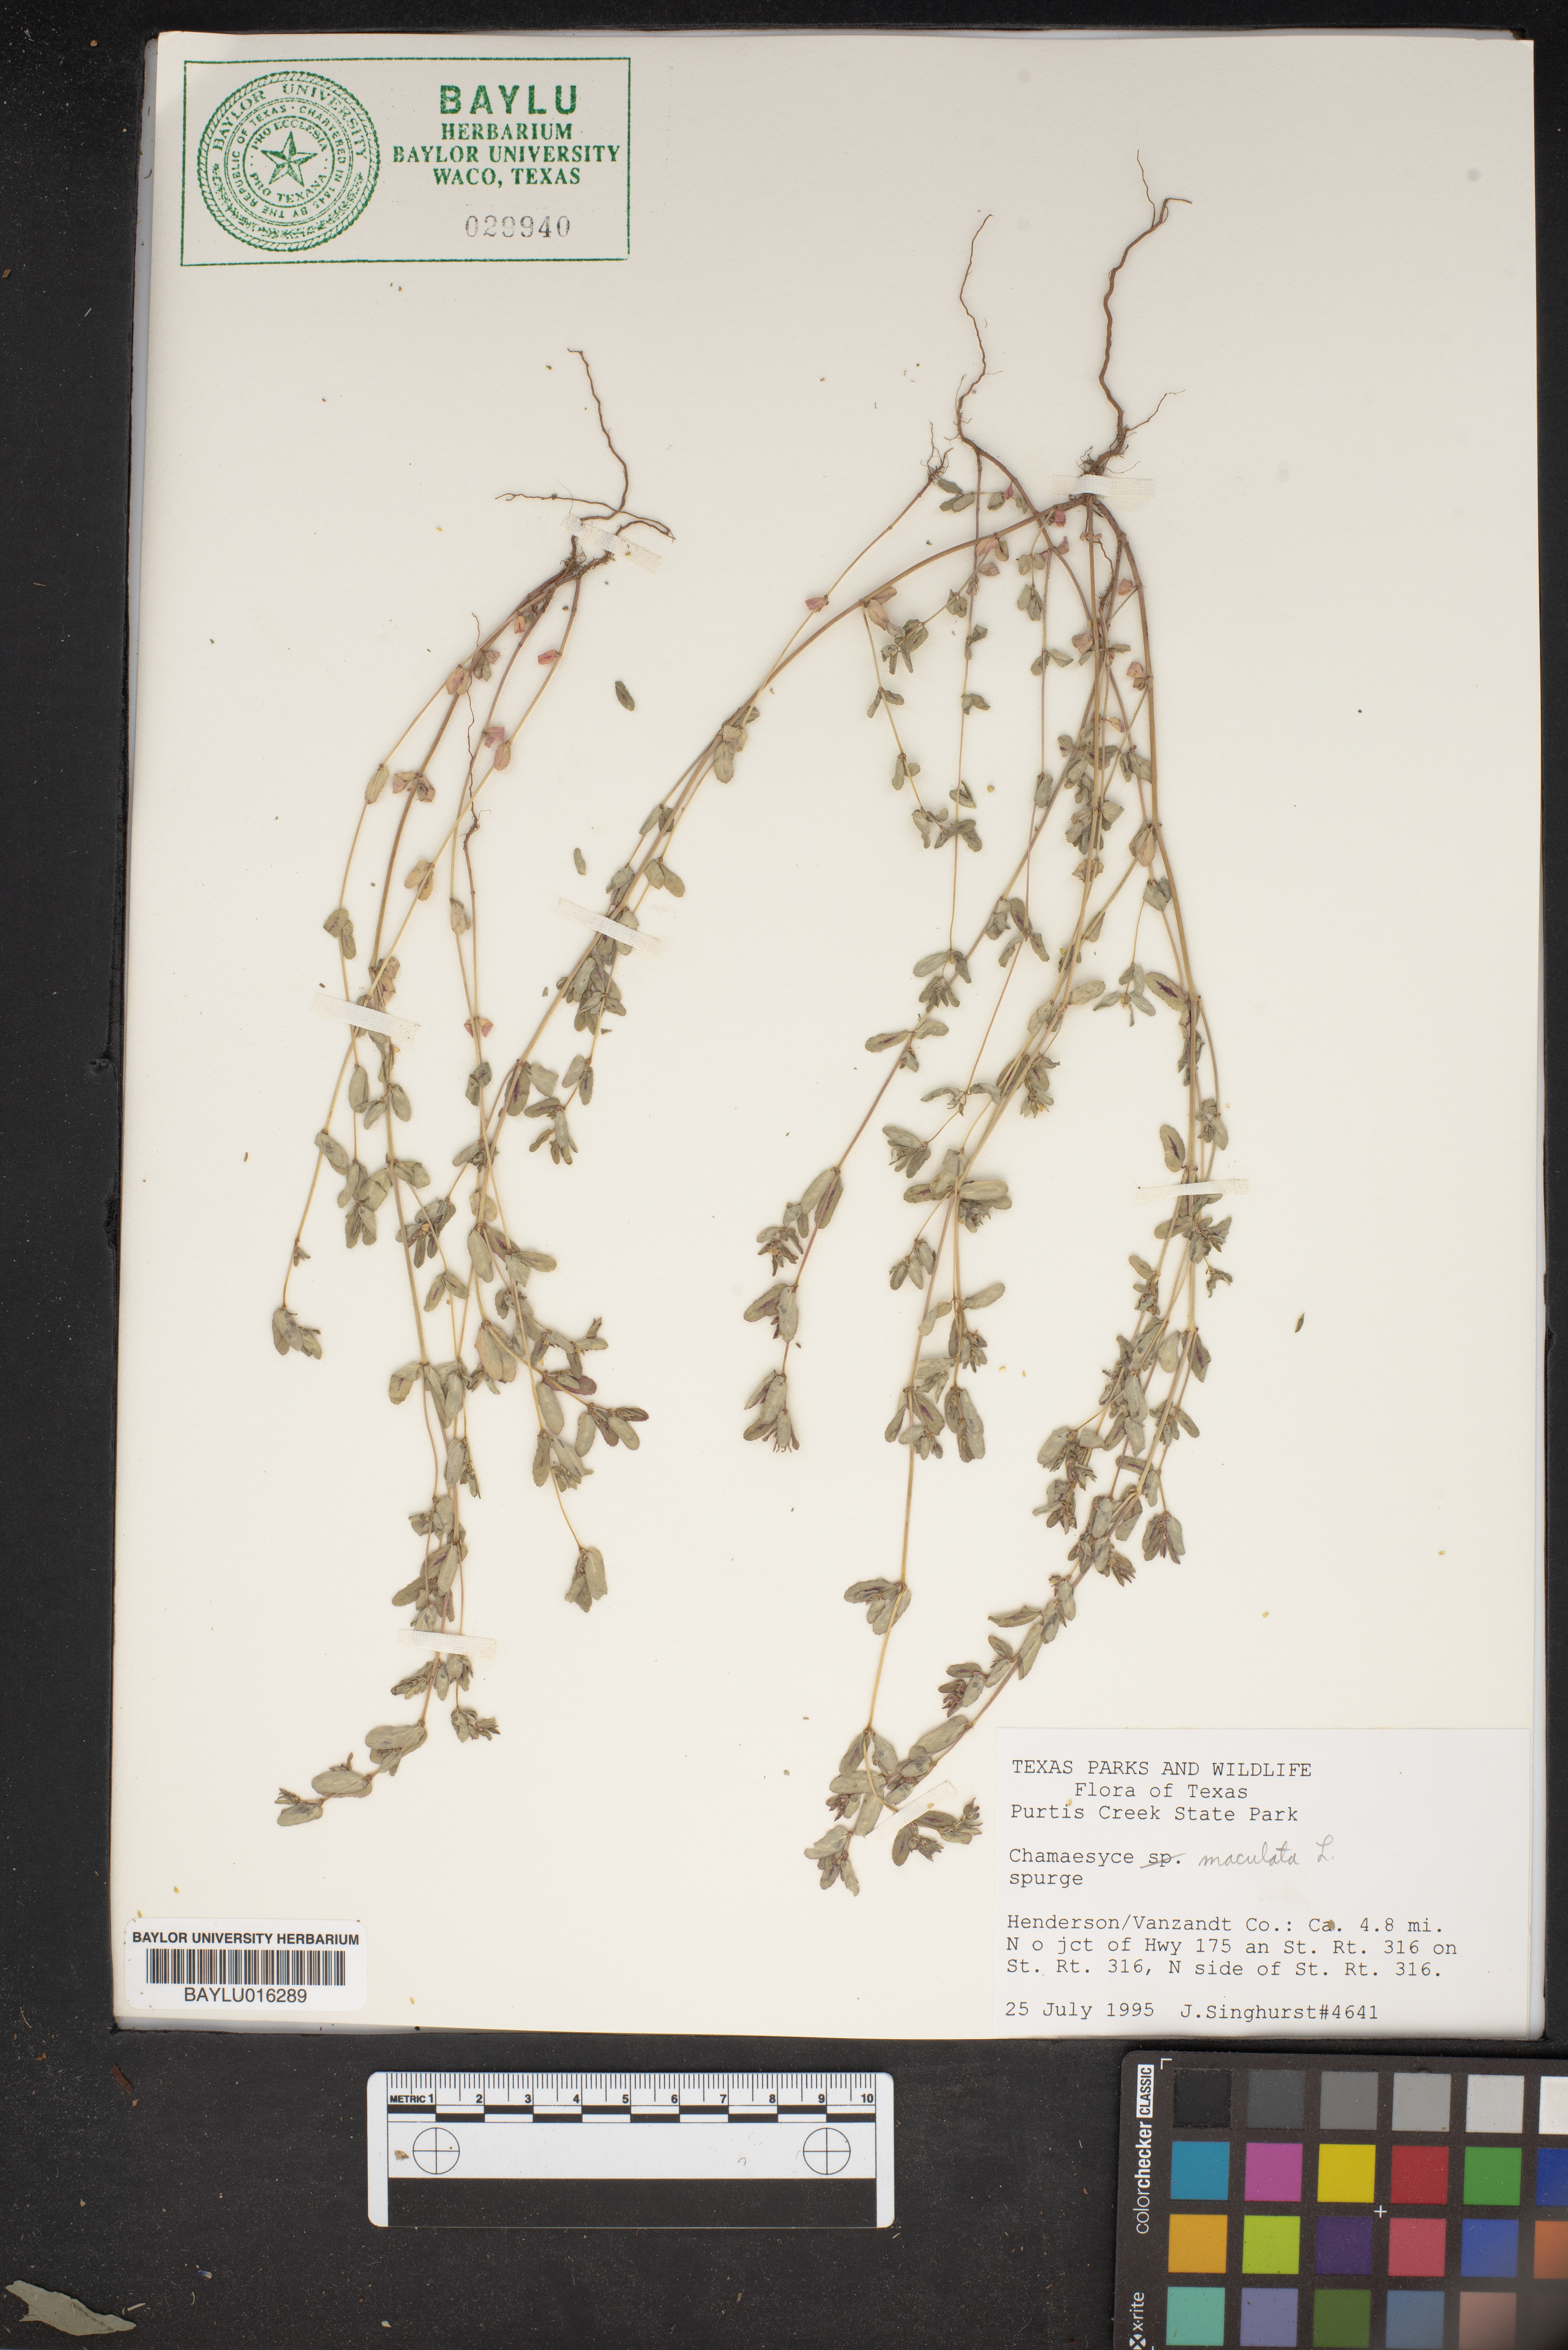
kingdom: Plantae
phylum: Tracheophyta
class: Magnoliopsida
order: Malpighiales
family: Euphorbiaceae
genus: Euphorbia
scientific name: Euphorbia maculata
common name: Spotted spurge
